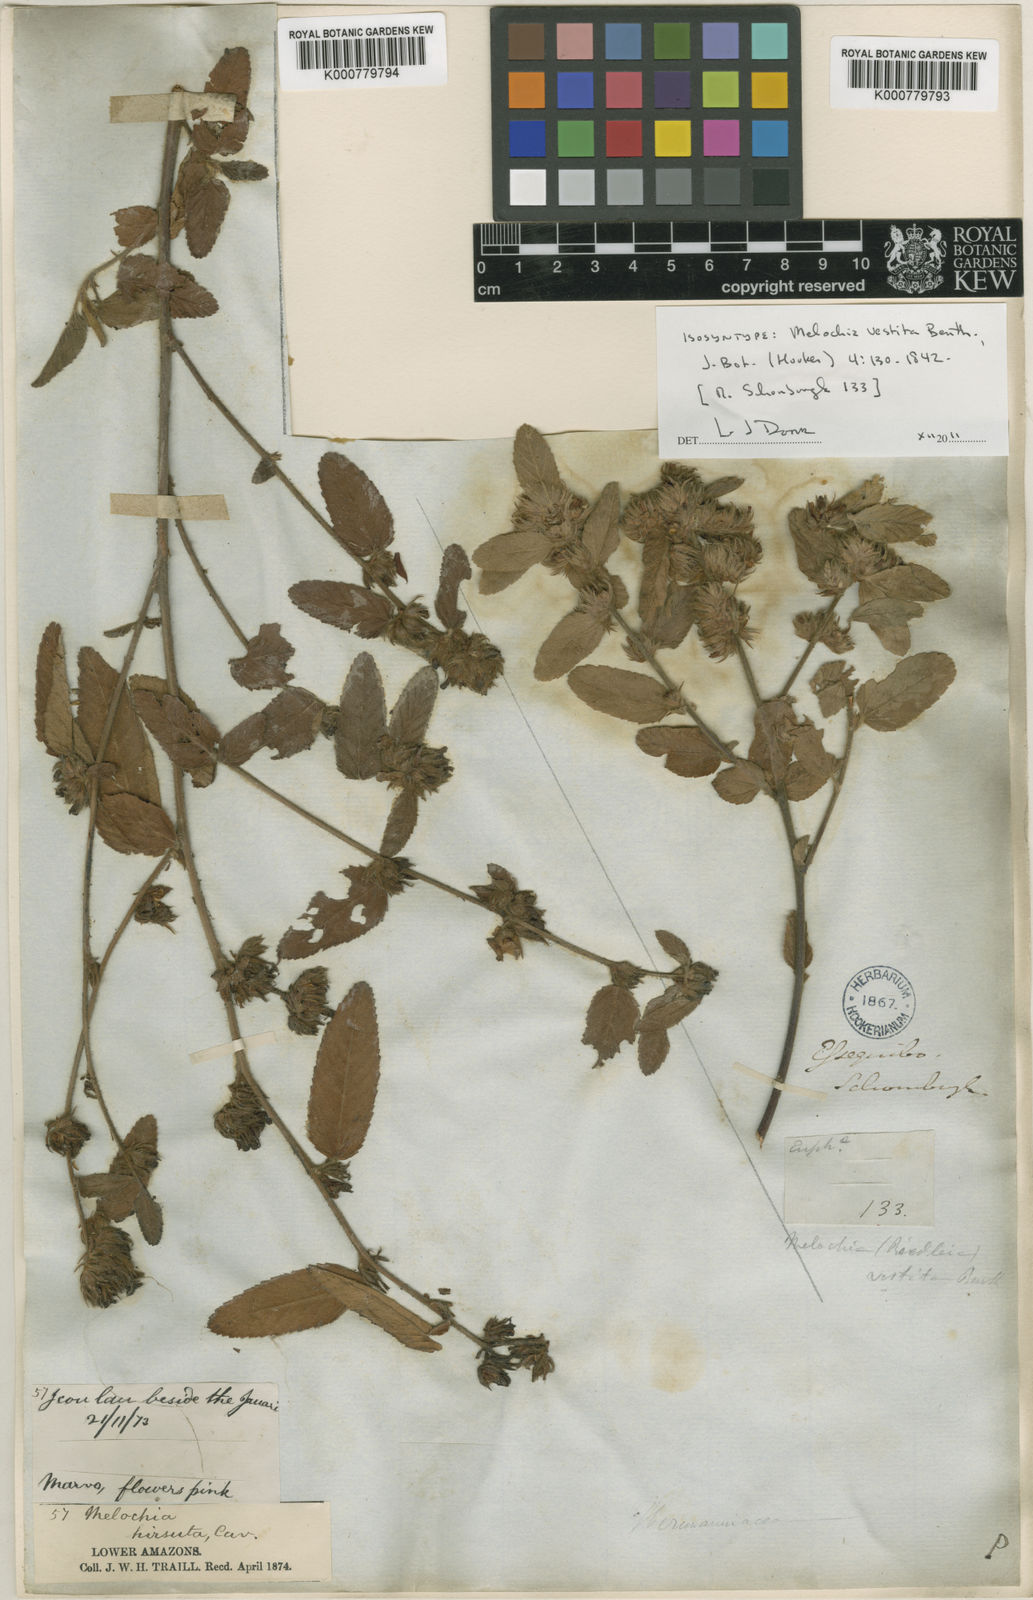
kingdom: Plantae
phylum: Tracheophyta
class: Magnoliopsida
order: Malvales
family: Malvaceae
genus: Melochia
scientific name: Melochia spicata
